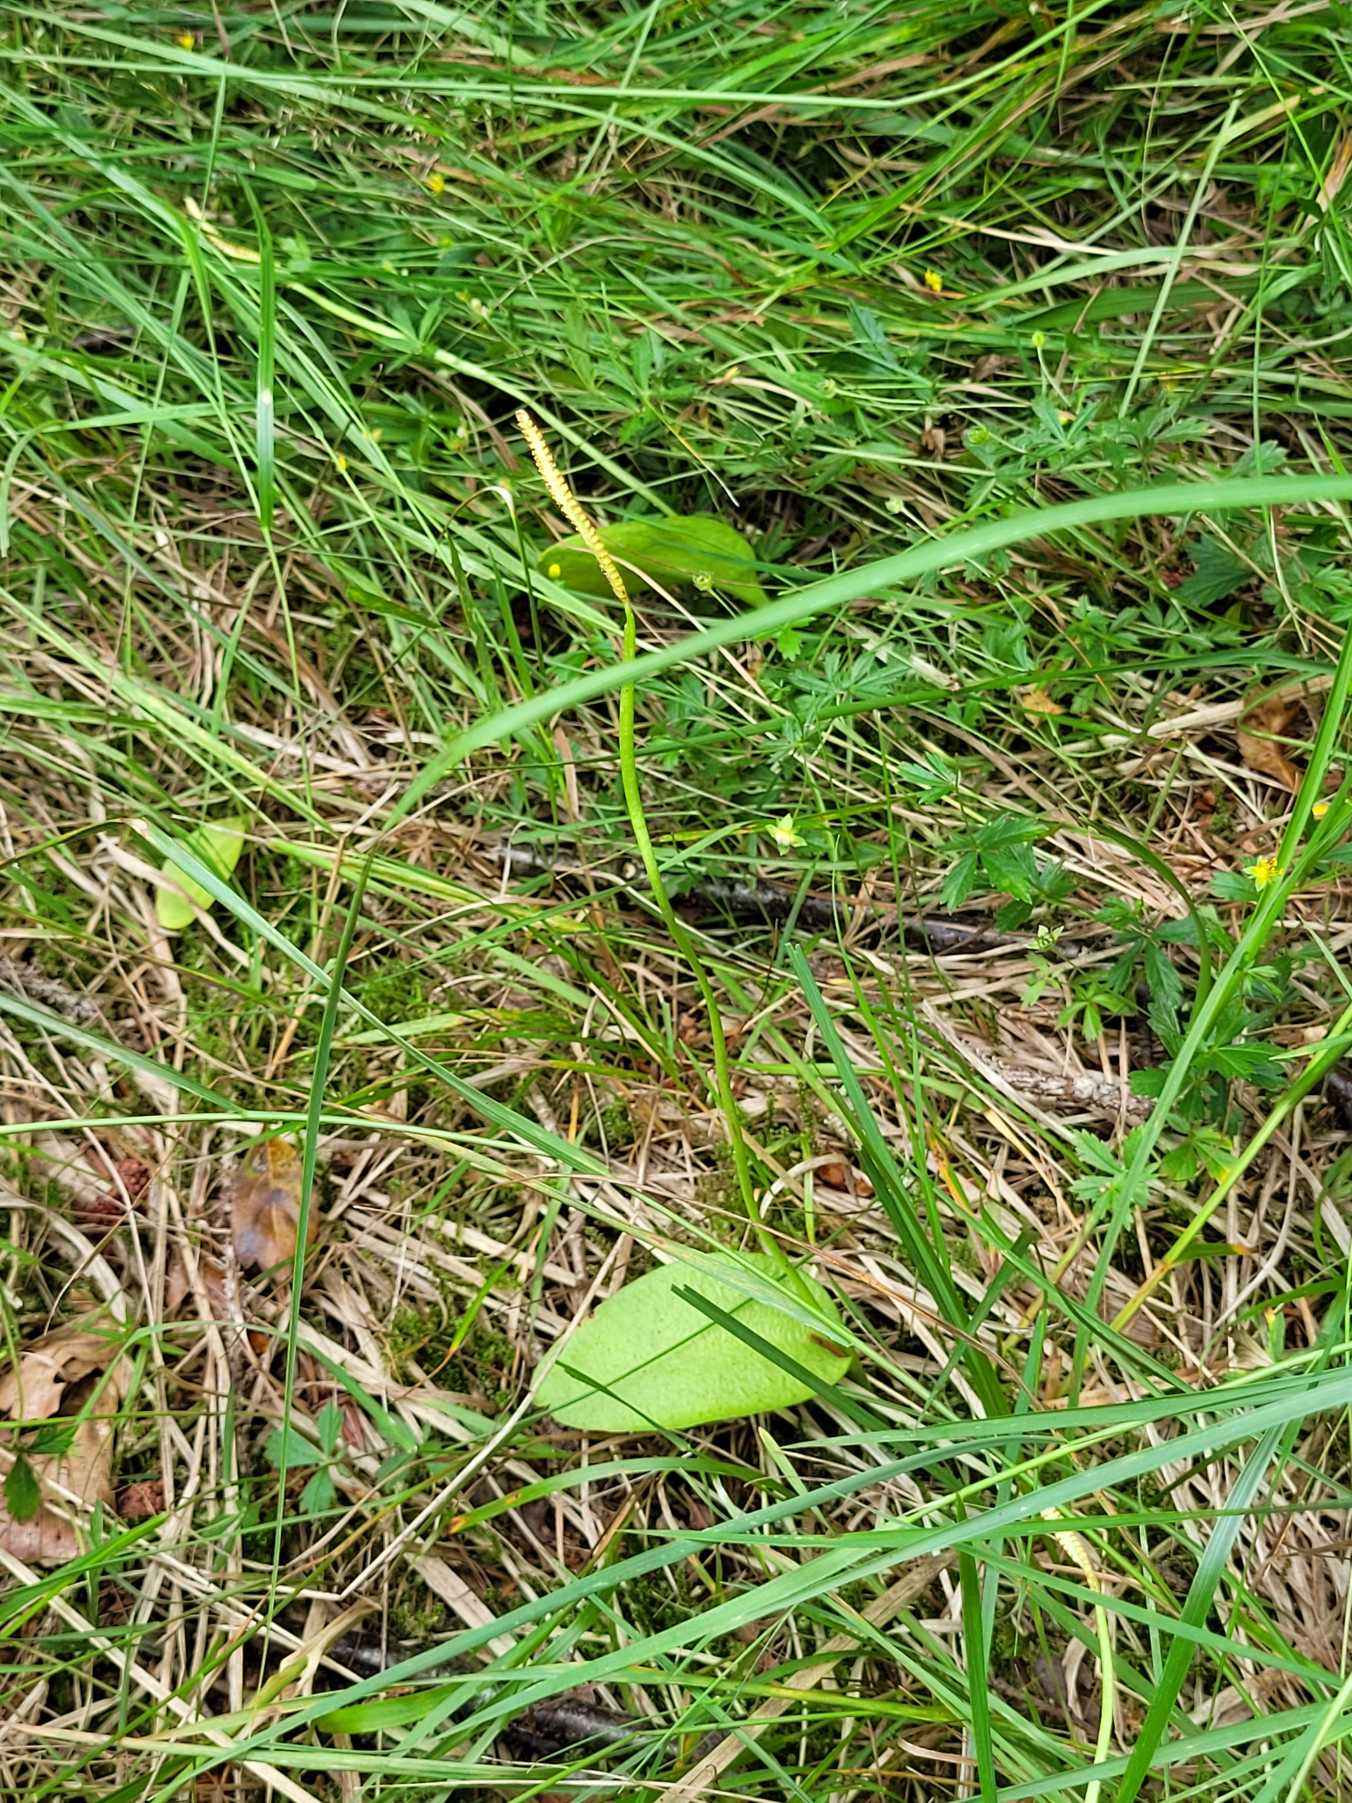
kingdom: Plantae
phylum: Tracheophyta
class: Polypodiopsida
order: Ophioglossales
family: Ophioglossaceae
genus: Ophioglossum
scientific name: Ophioglossum vulgatum
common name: Slangetunge
